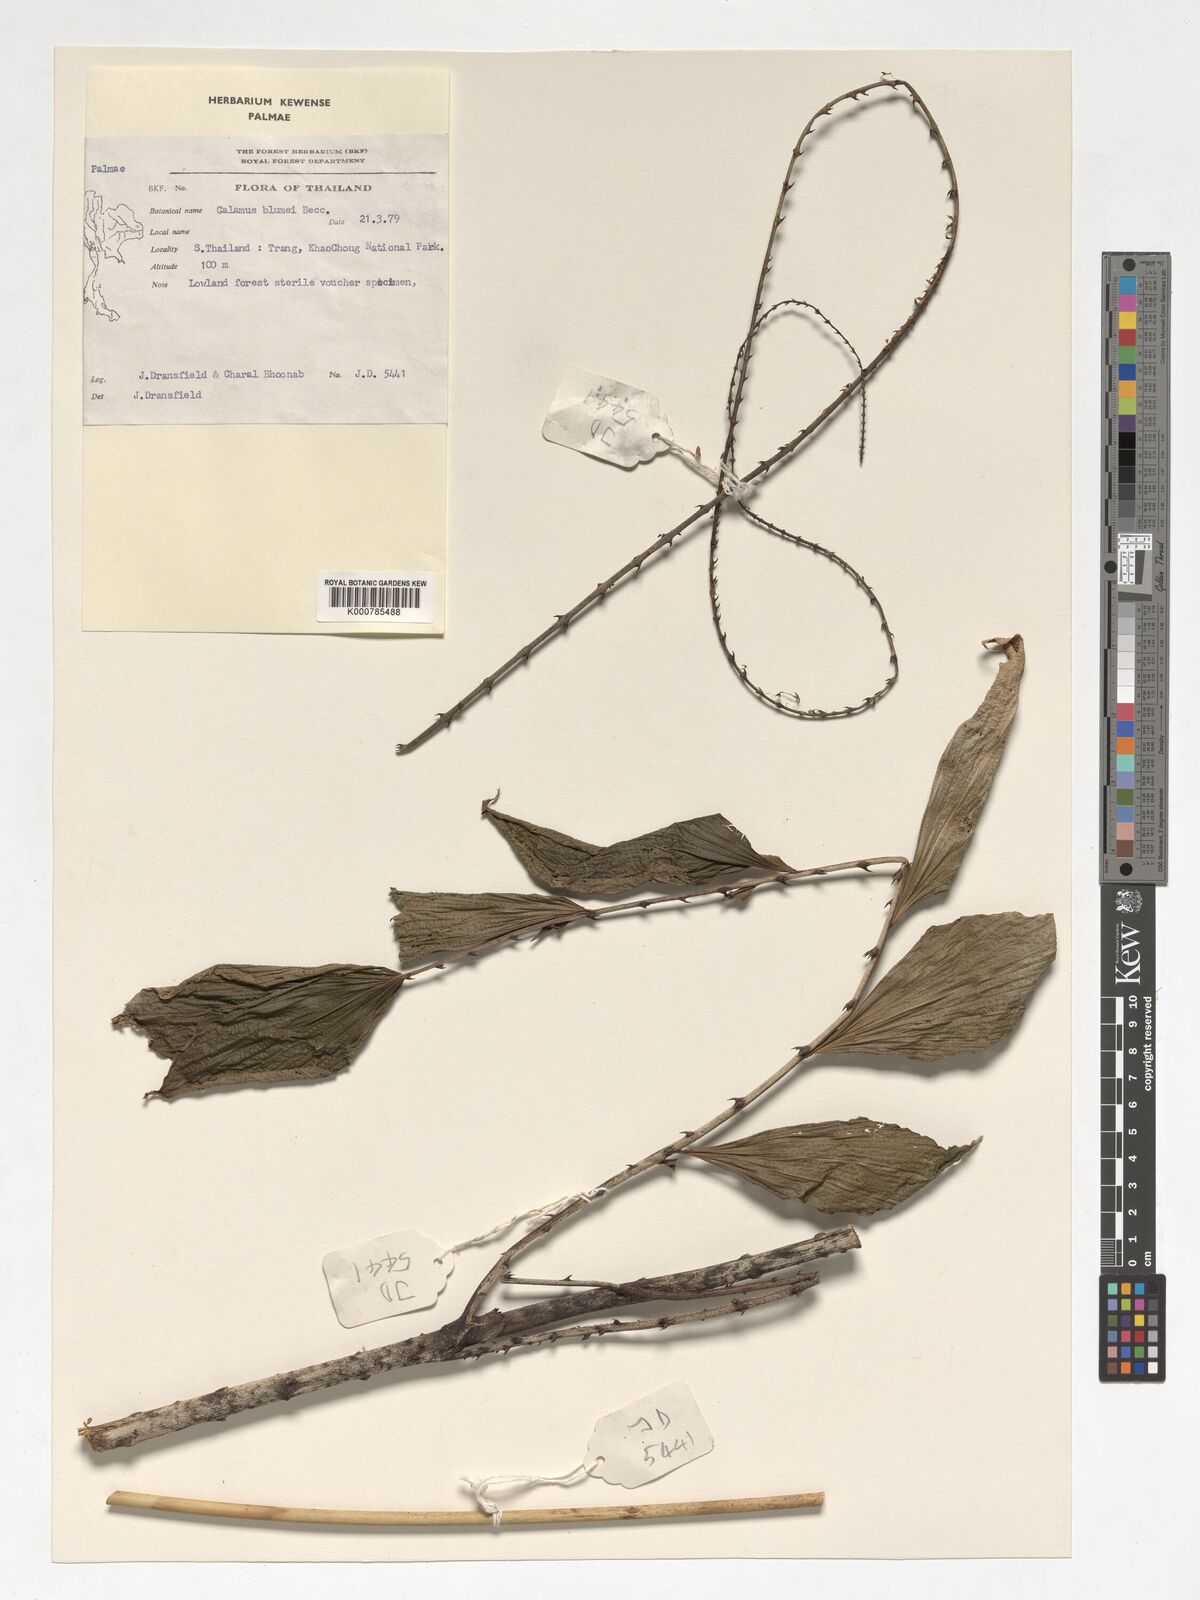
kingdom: Plantae
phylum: Tracheophyta
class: Liliopsida
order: Arecales
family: Arecaceae
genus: Calamus
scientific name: Calamus rhomboideus
